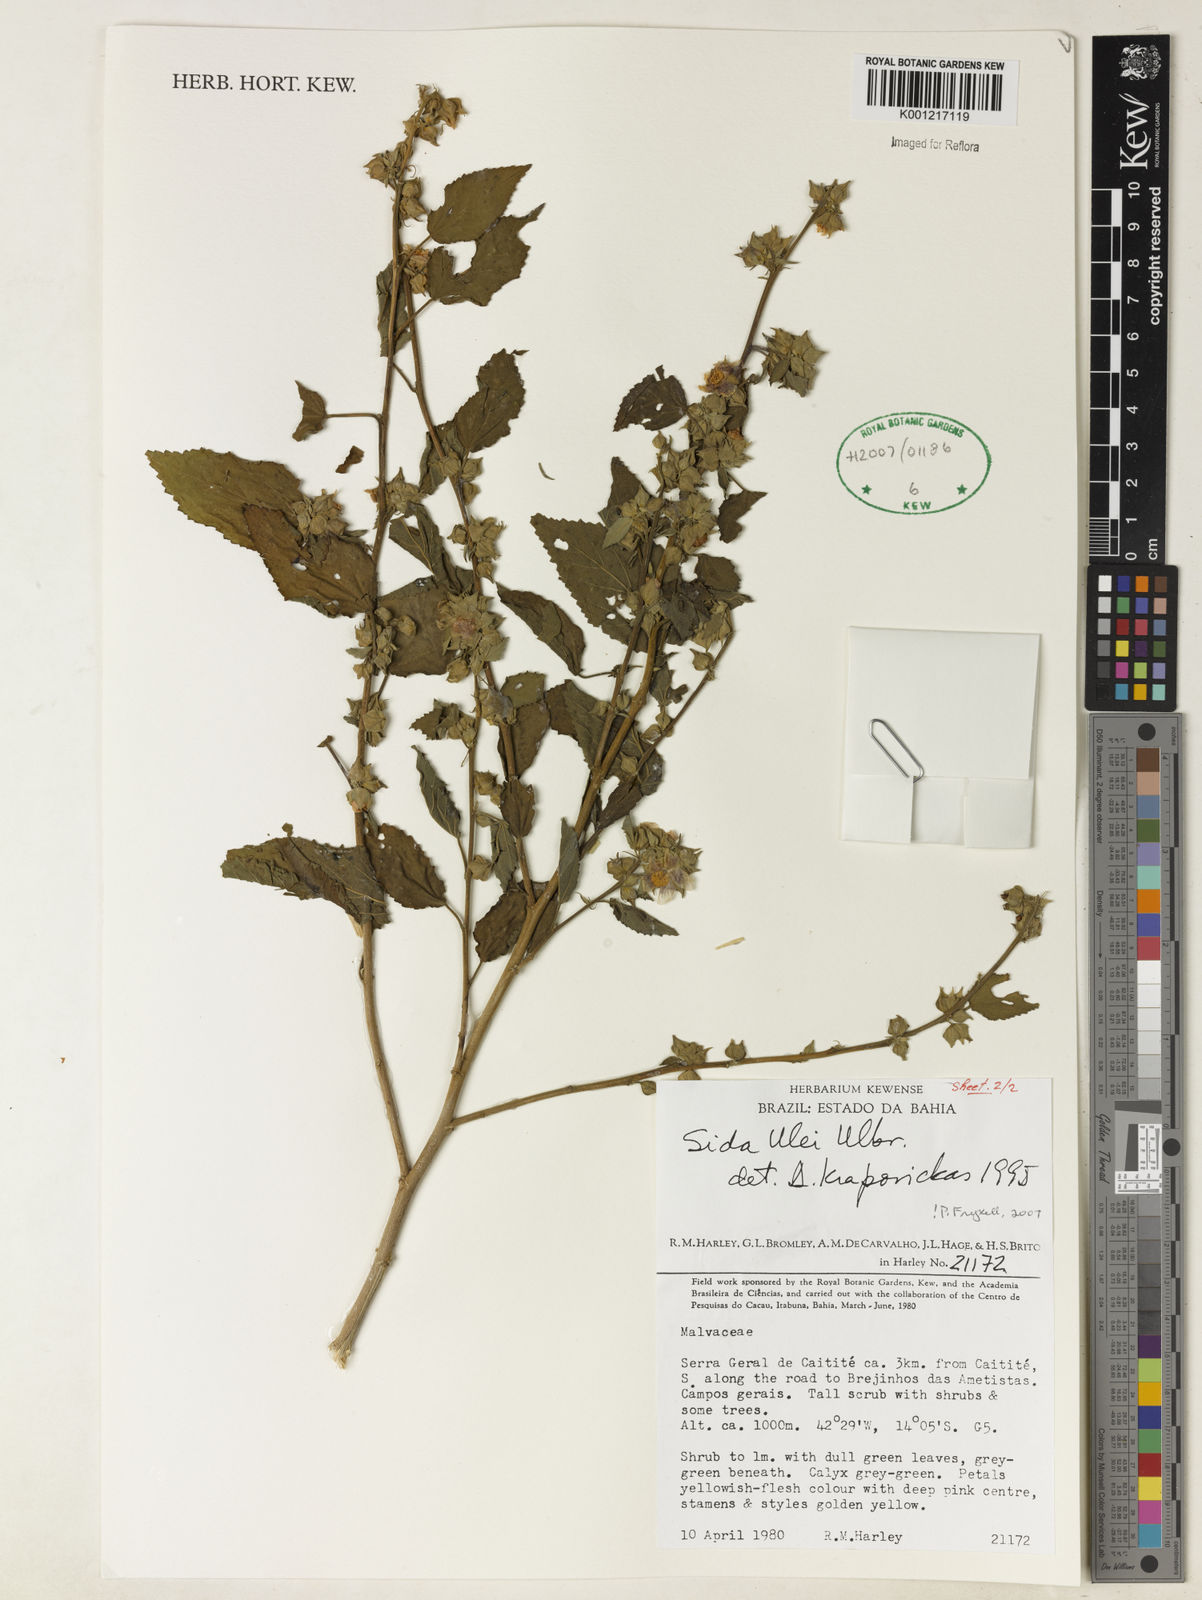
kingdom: Plantae
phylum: Tracheophyta
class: Magnoliopsida
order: Malvales
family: Malvaceae
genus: Sida
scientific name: Sida ulei
